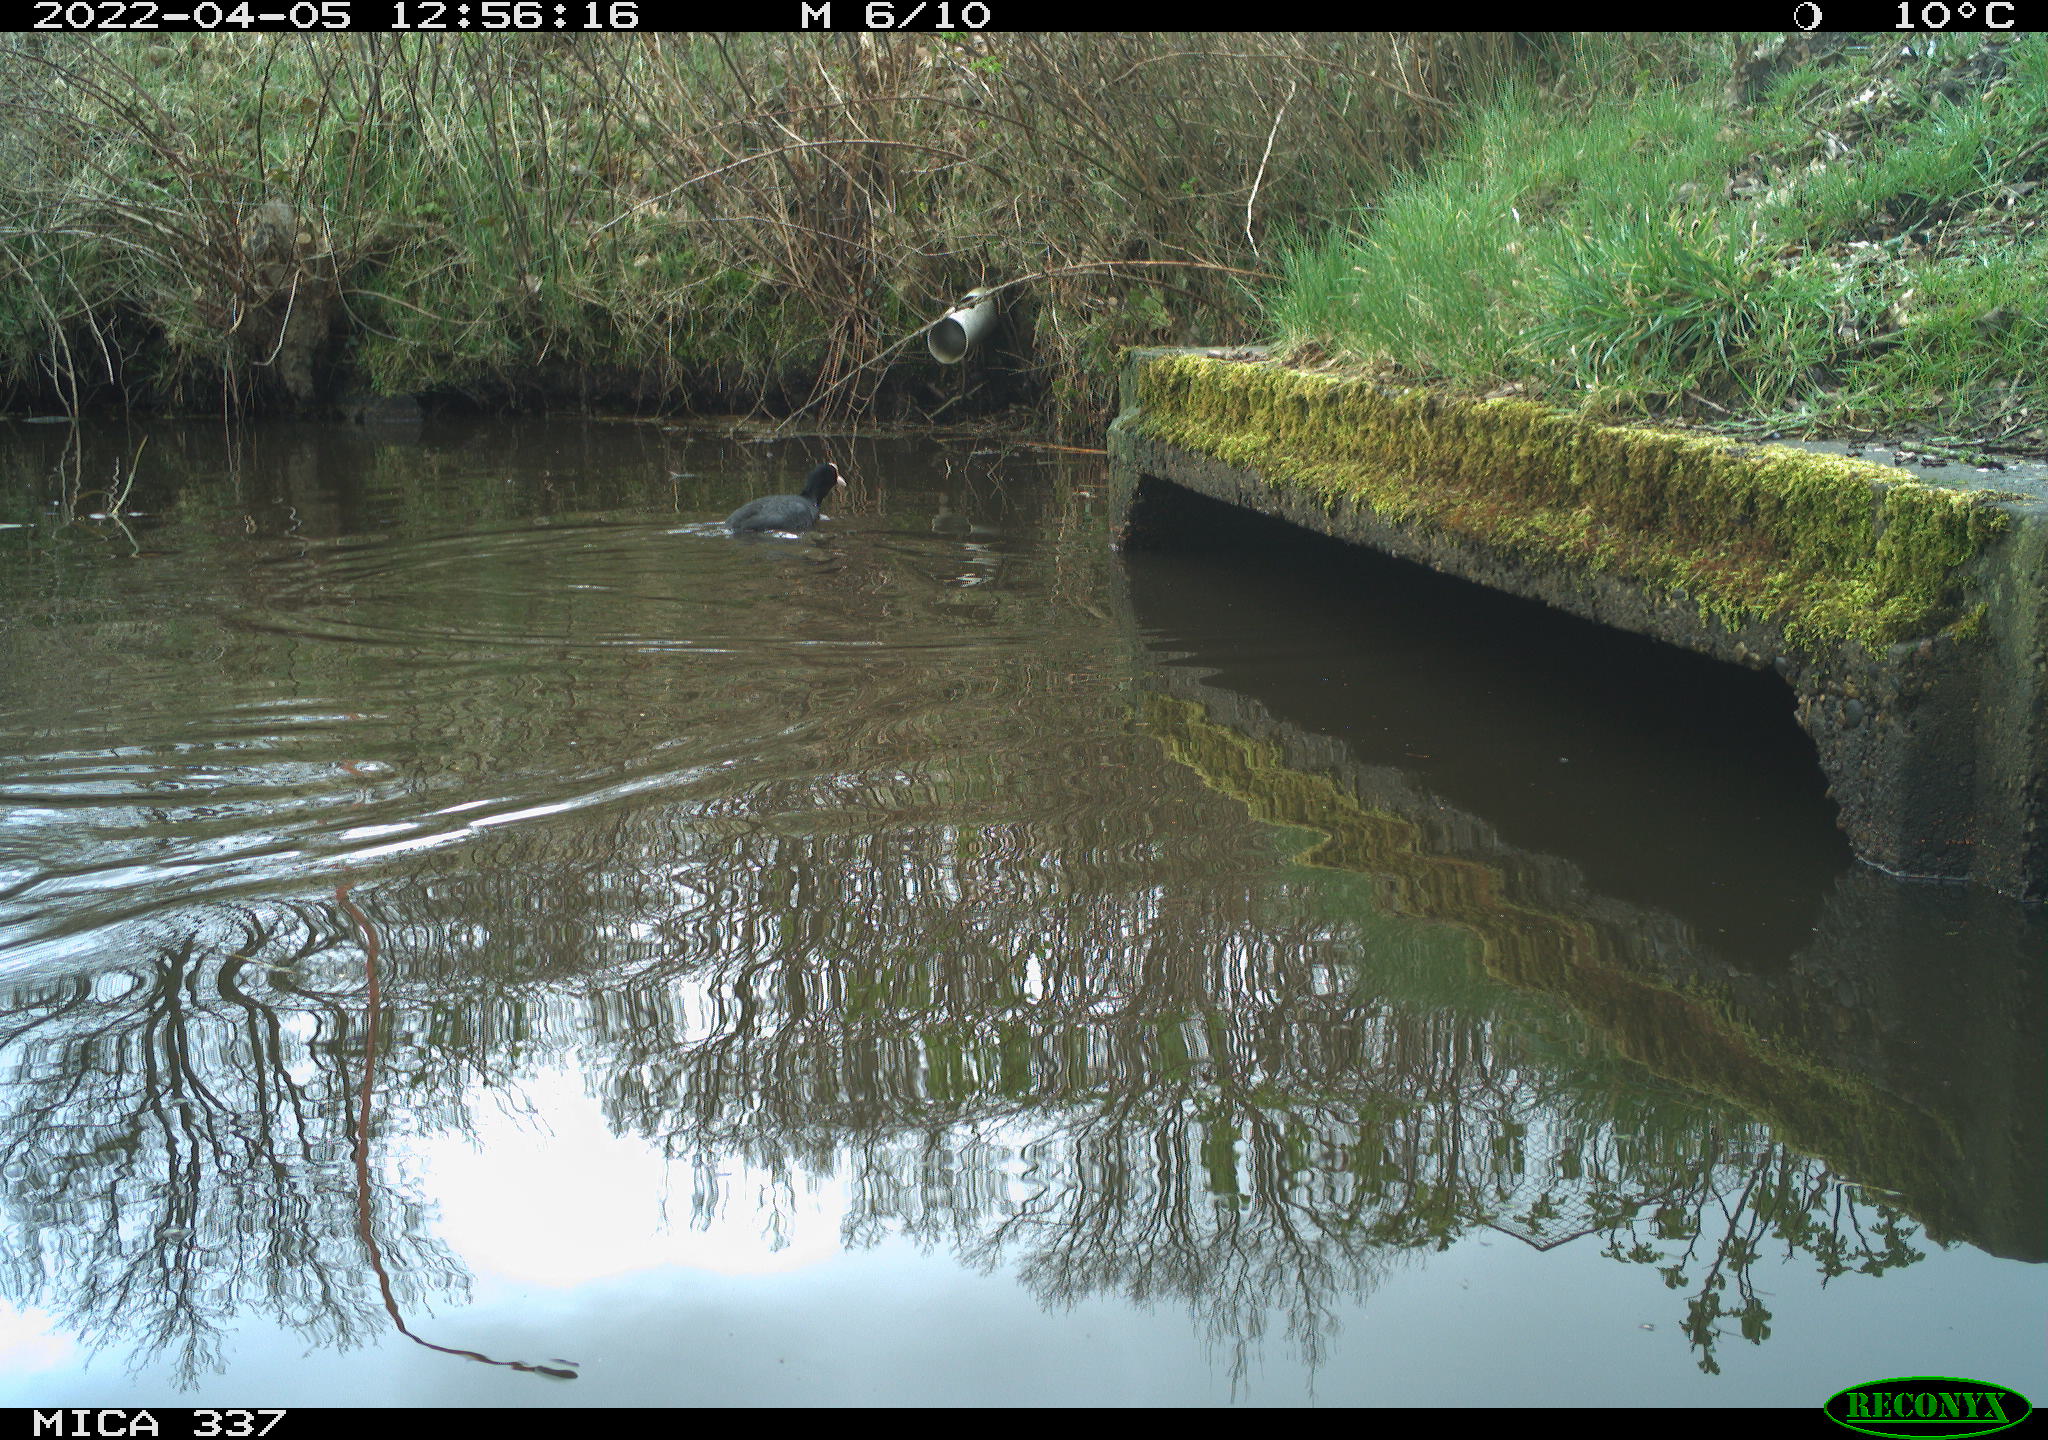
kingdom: Animalia
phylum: Chordata
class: Aves
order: Gruiformes
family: Rallidae
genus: Fulica
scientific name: Fulica atra
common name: Eurasian coot
